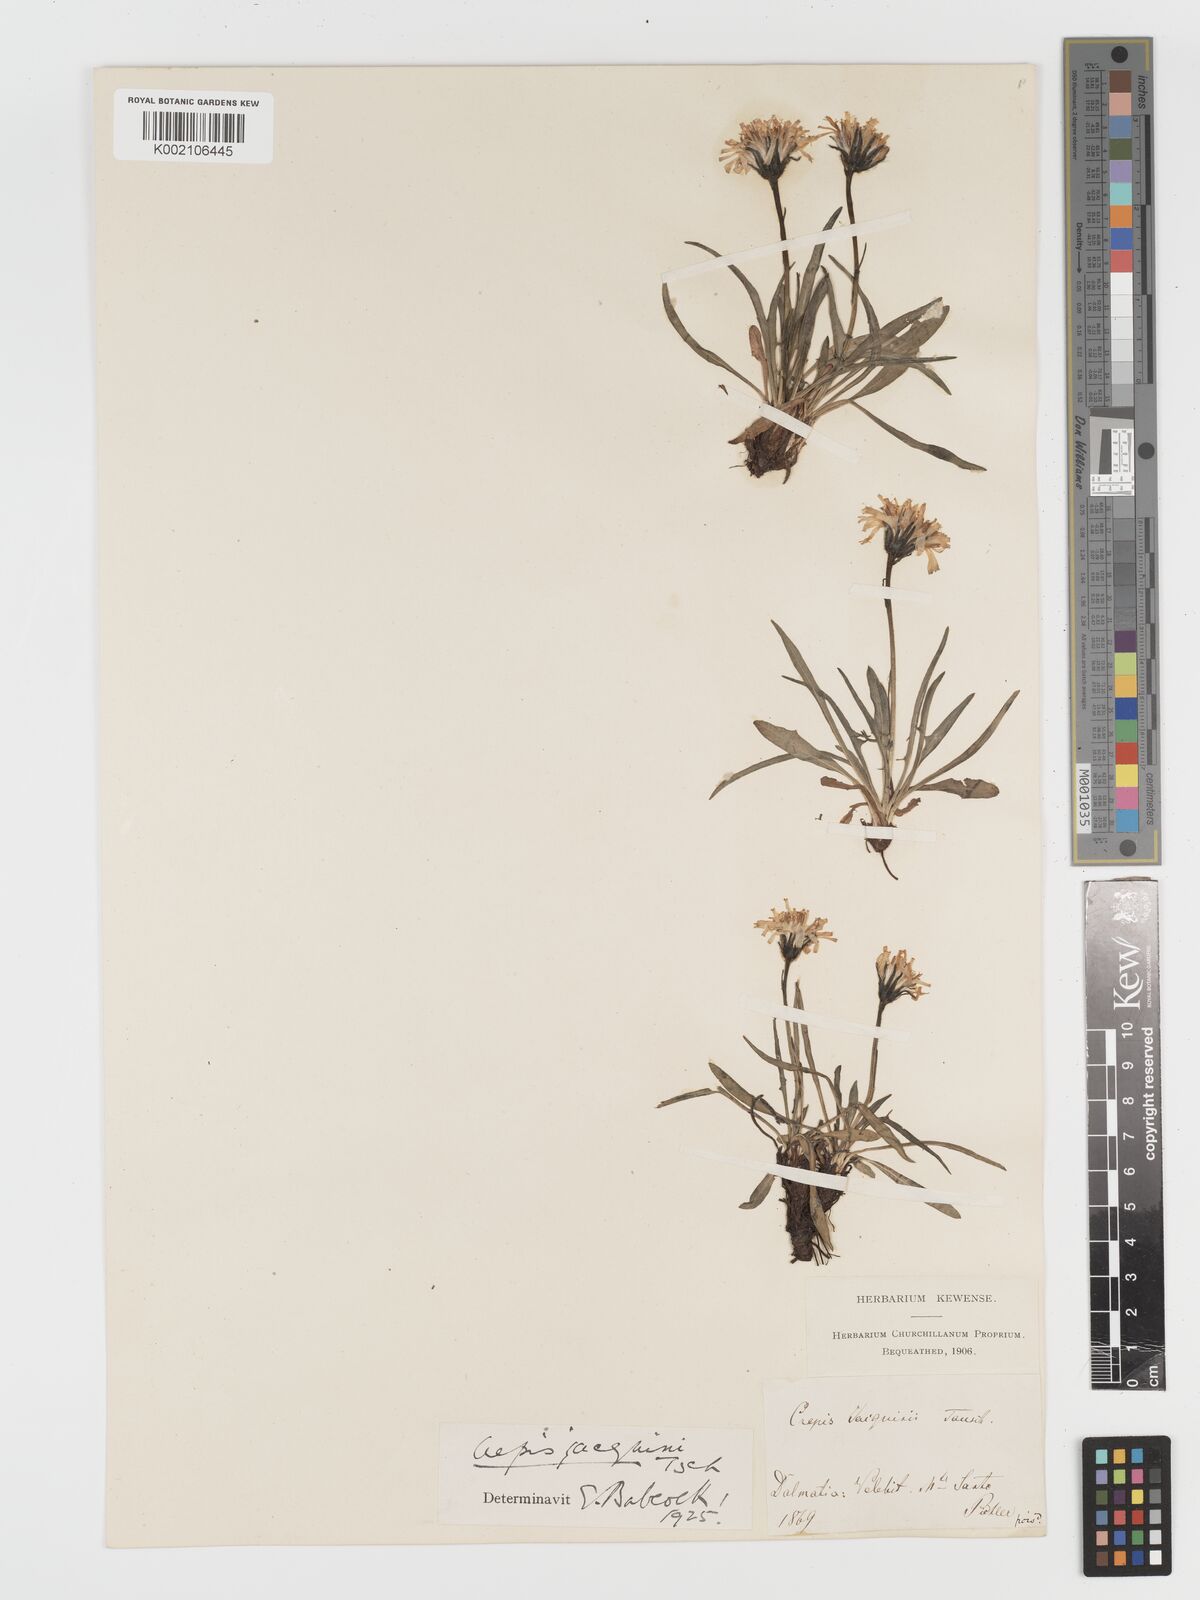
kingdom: Plantae
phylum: Tracheophyta
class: Magnoliopsida
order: Asterales
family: Asteraceae
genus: Crepis
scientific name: Crepis jacquinii
